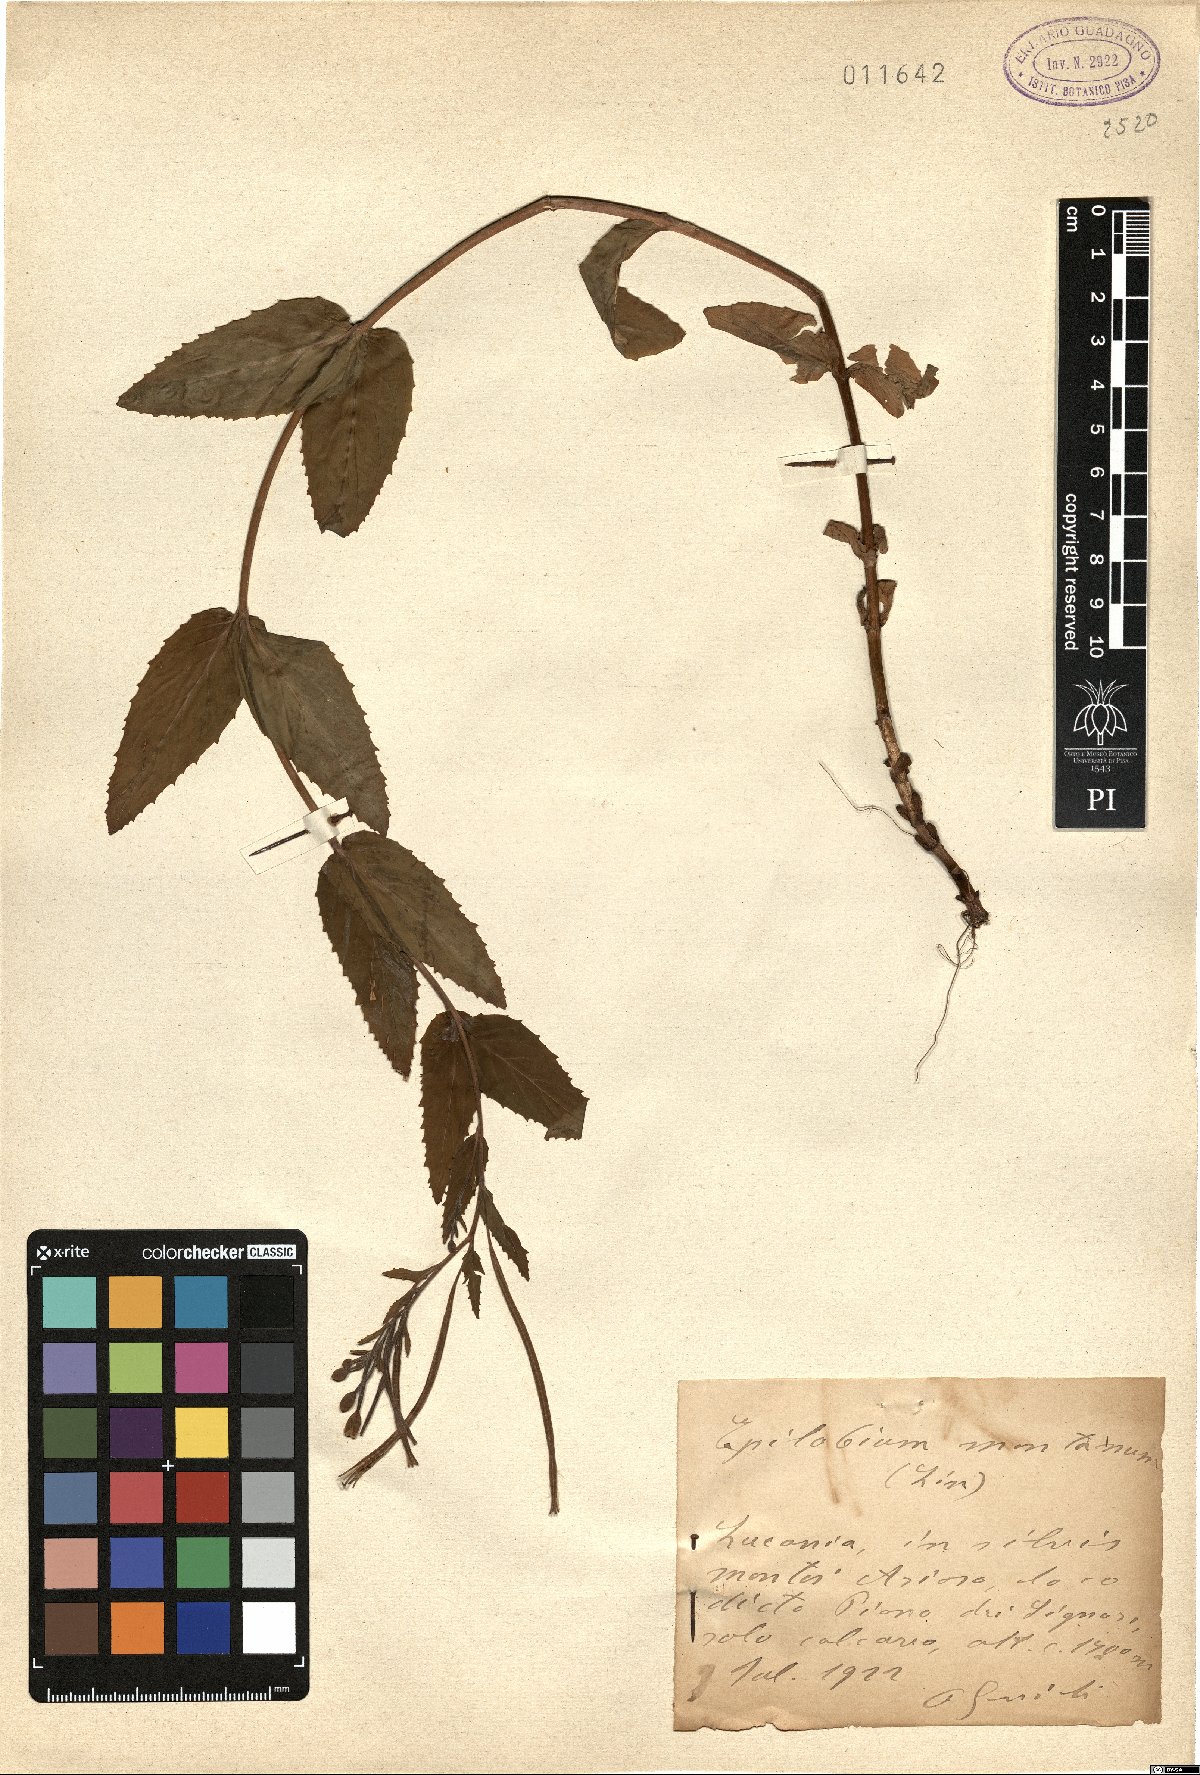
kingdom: Plantae
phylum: Tracheophyta
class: Magnoliopsida
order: Myrtales
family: Onagraceae
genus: Epilobium
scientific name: Epilobium montanum
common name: Broad-leaved willowherb
